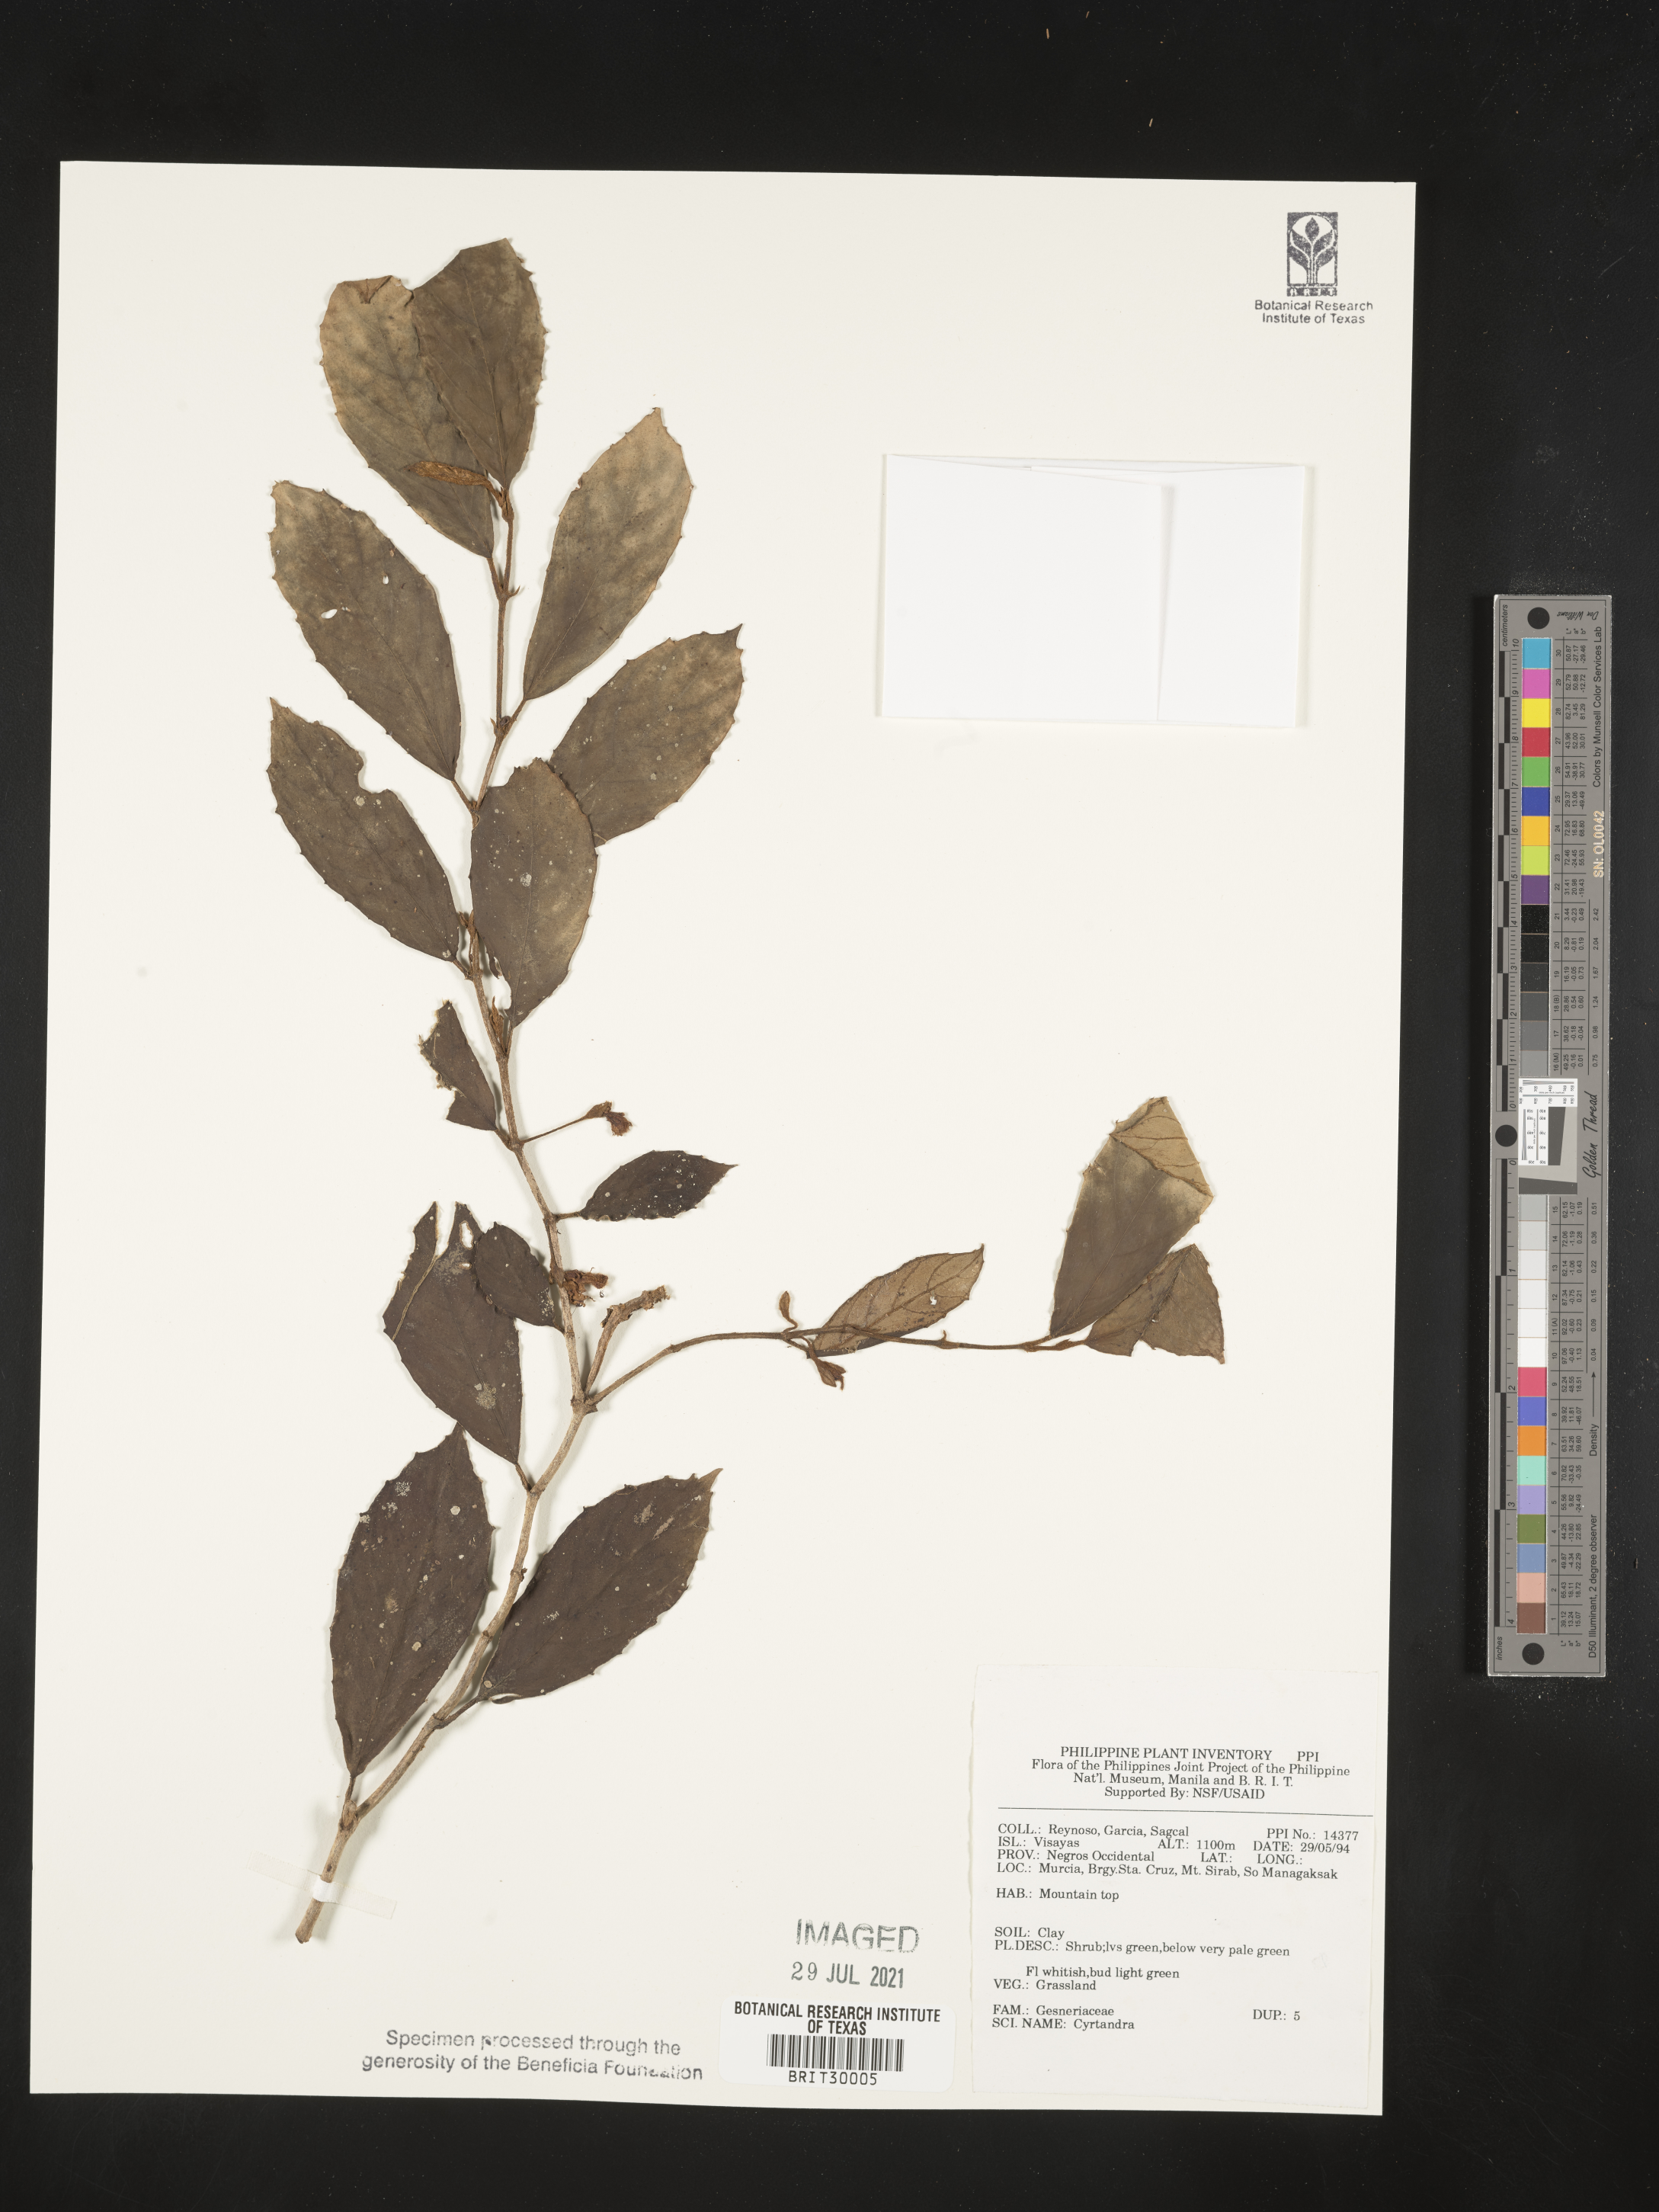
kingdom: Plantae
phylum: Tracheophyta
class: Magnoliopsida
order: Lamiales
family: Gesneriaceae
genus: Cyrtandra
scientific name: Cyrtandra
